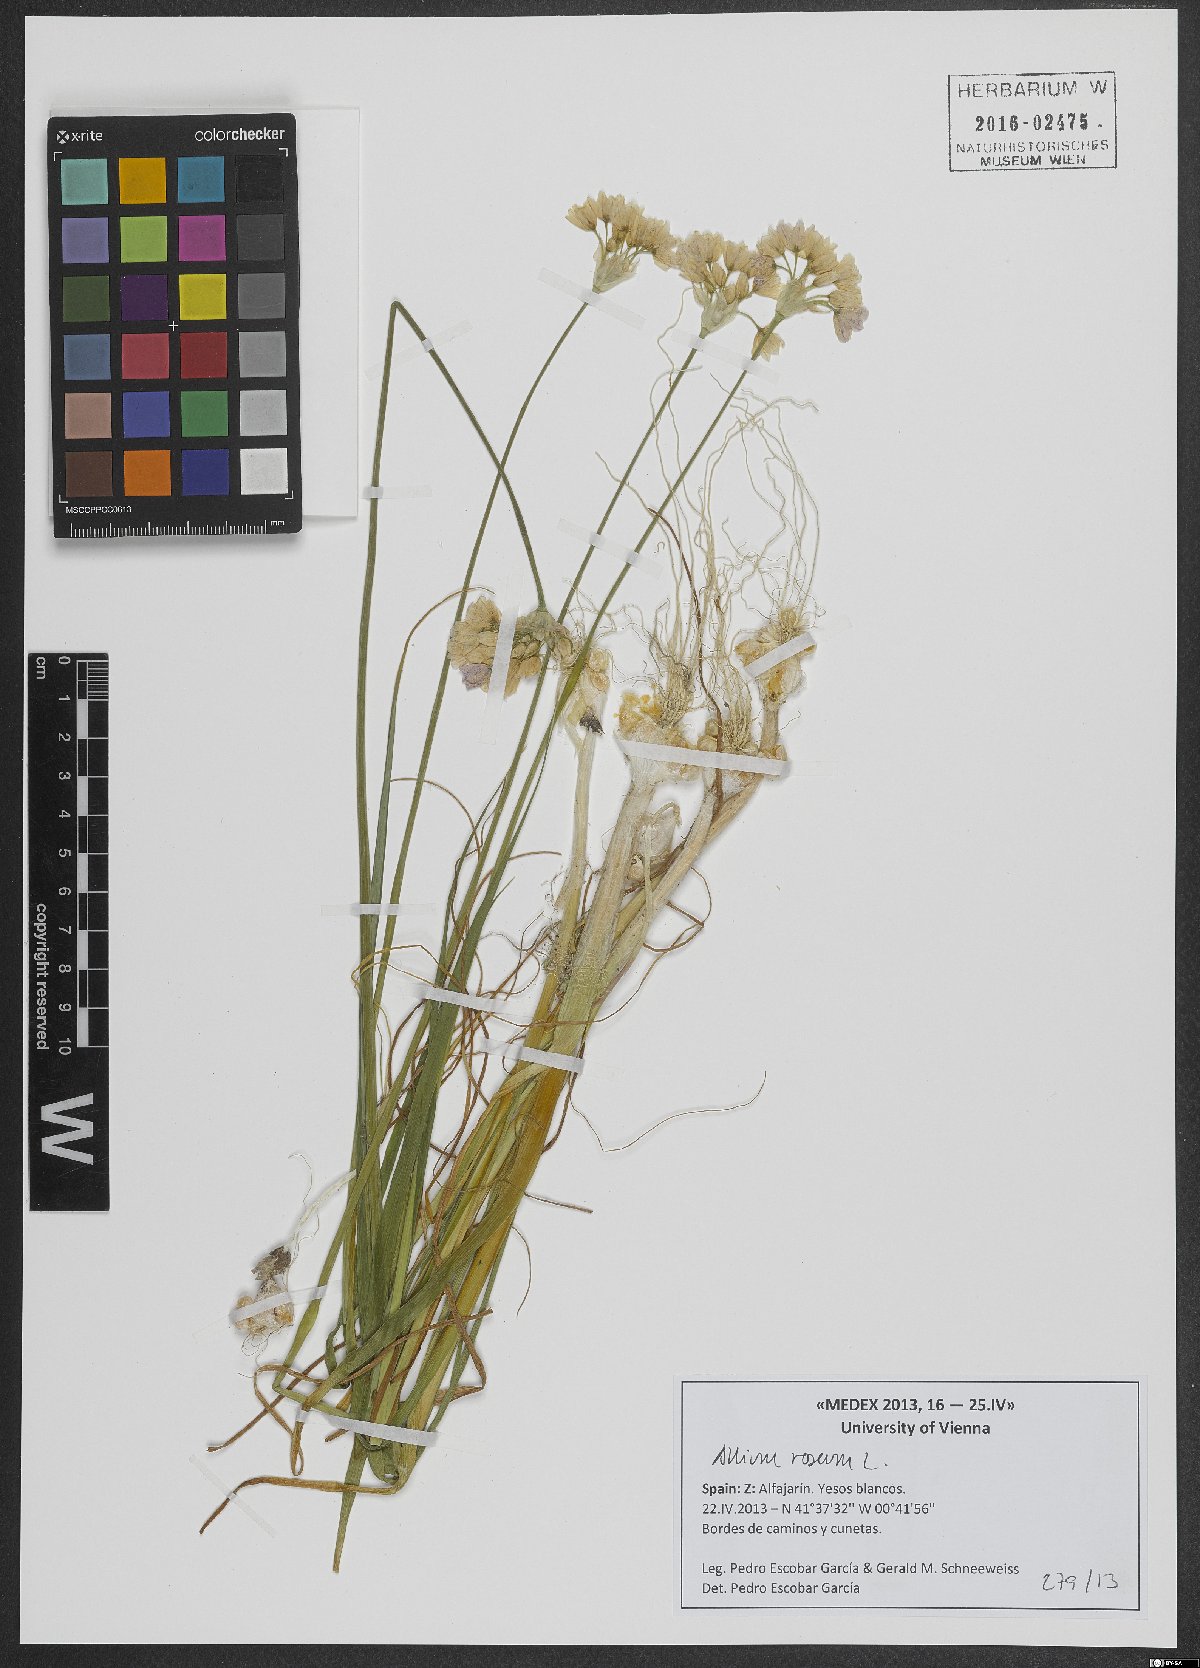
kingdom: Plantae
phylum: Tracheophyta
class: Liliopsida
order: Asparagales
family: Amaryllidaceae
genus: Allium
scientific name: Allium roseum
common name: Rosy garlic
